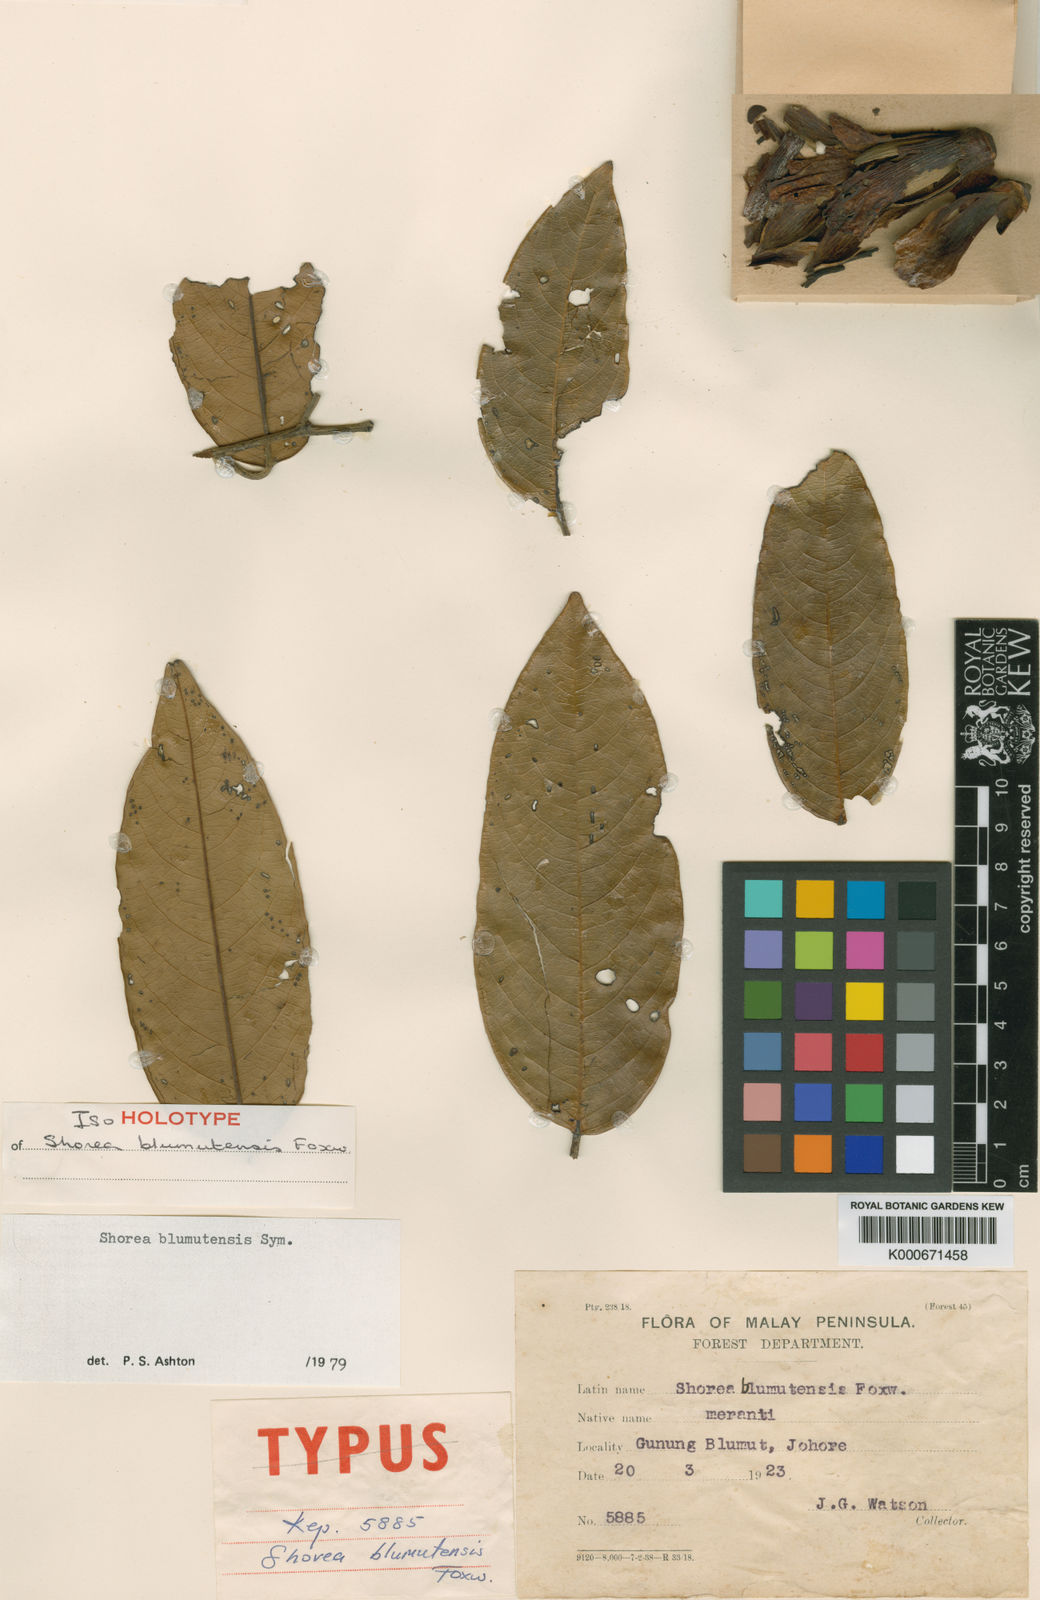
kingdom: Plantae
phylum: Tracheophyta
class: Magnoliopsida
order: Malvales
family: Dipterocarpaceae
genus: Shorea
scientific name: Shorea blumutensis
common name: Yellow meranti
